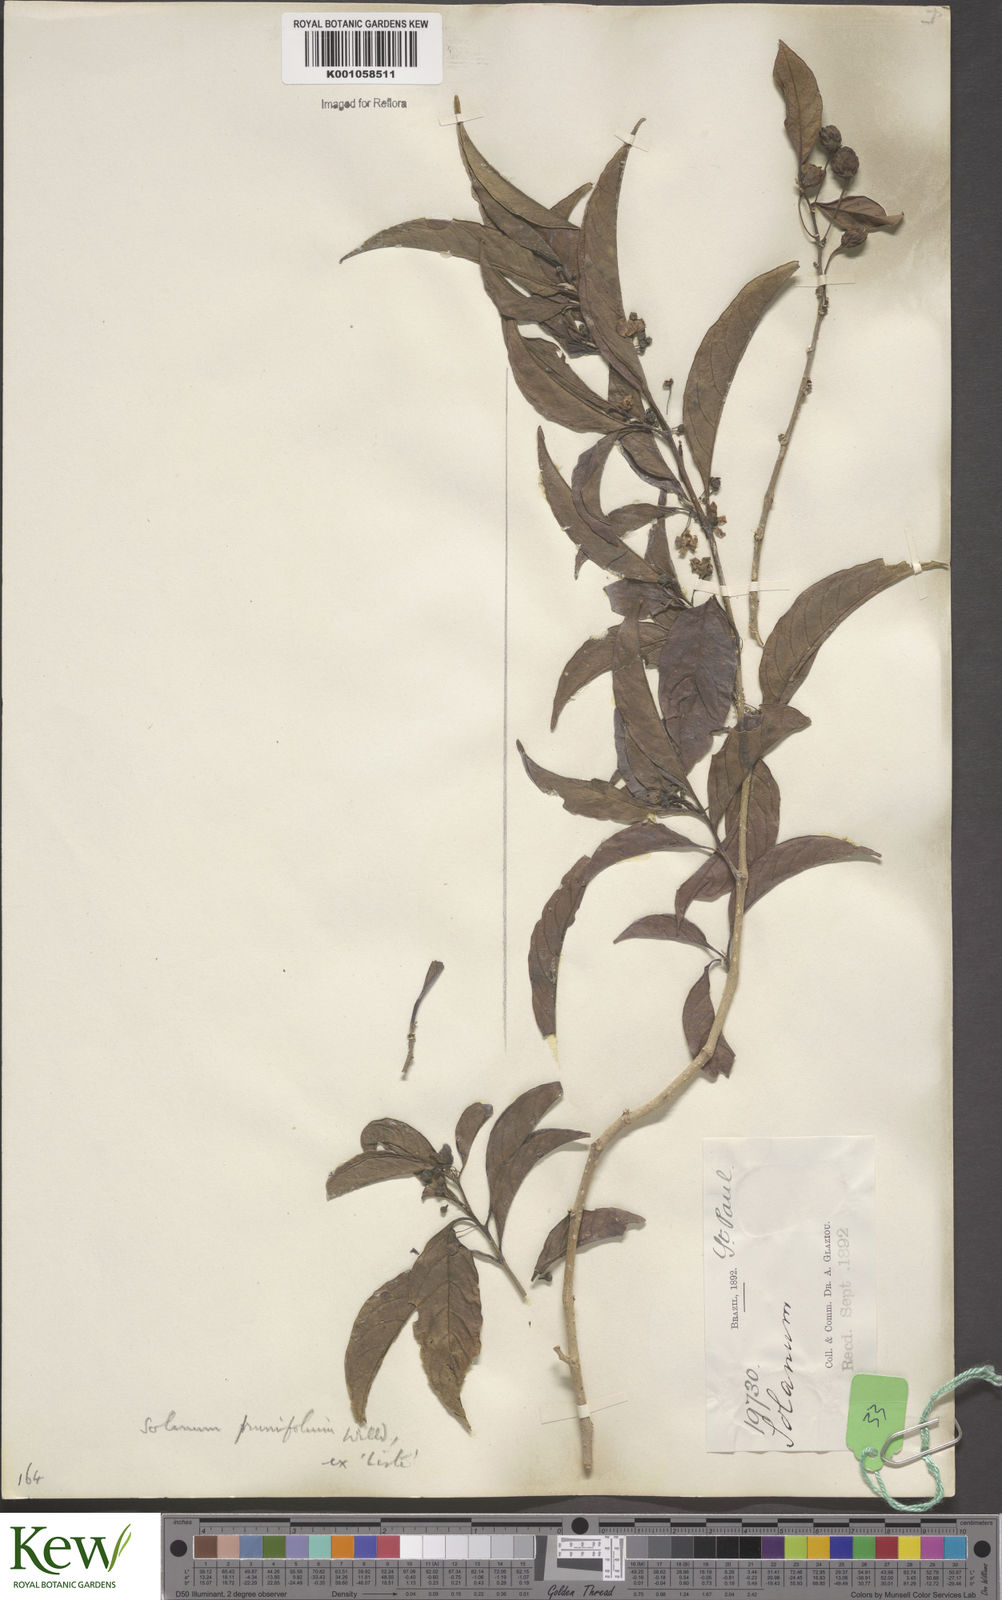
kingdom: Plantae
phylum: Tracheophyta
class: Magnoliopsida
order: Solanales
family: Solanaceae
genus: Solanum
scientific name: Solanum seaforthianum
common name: Brazilian nightshade
